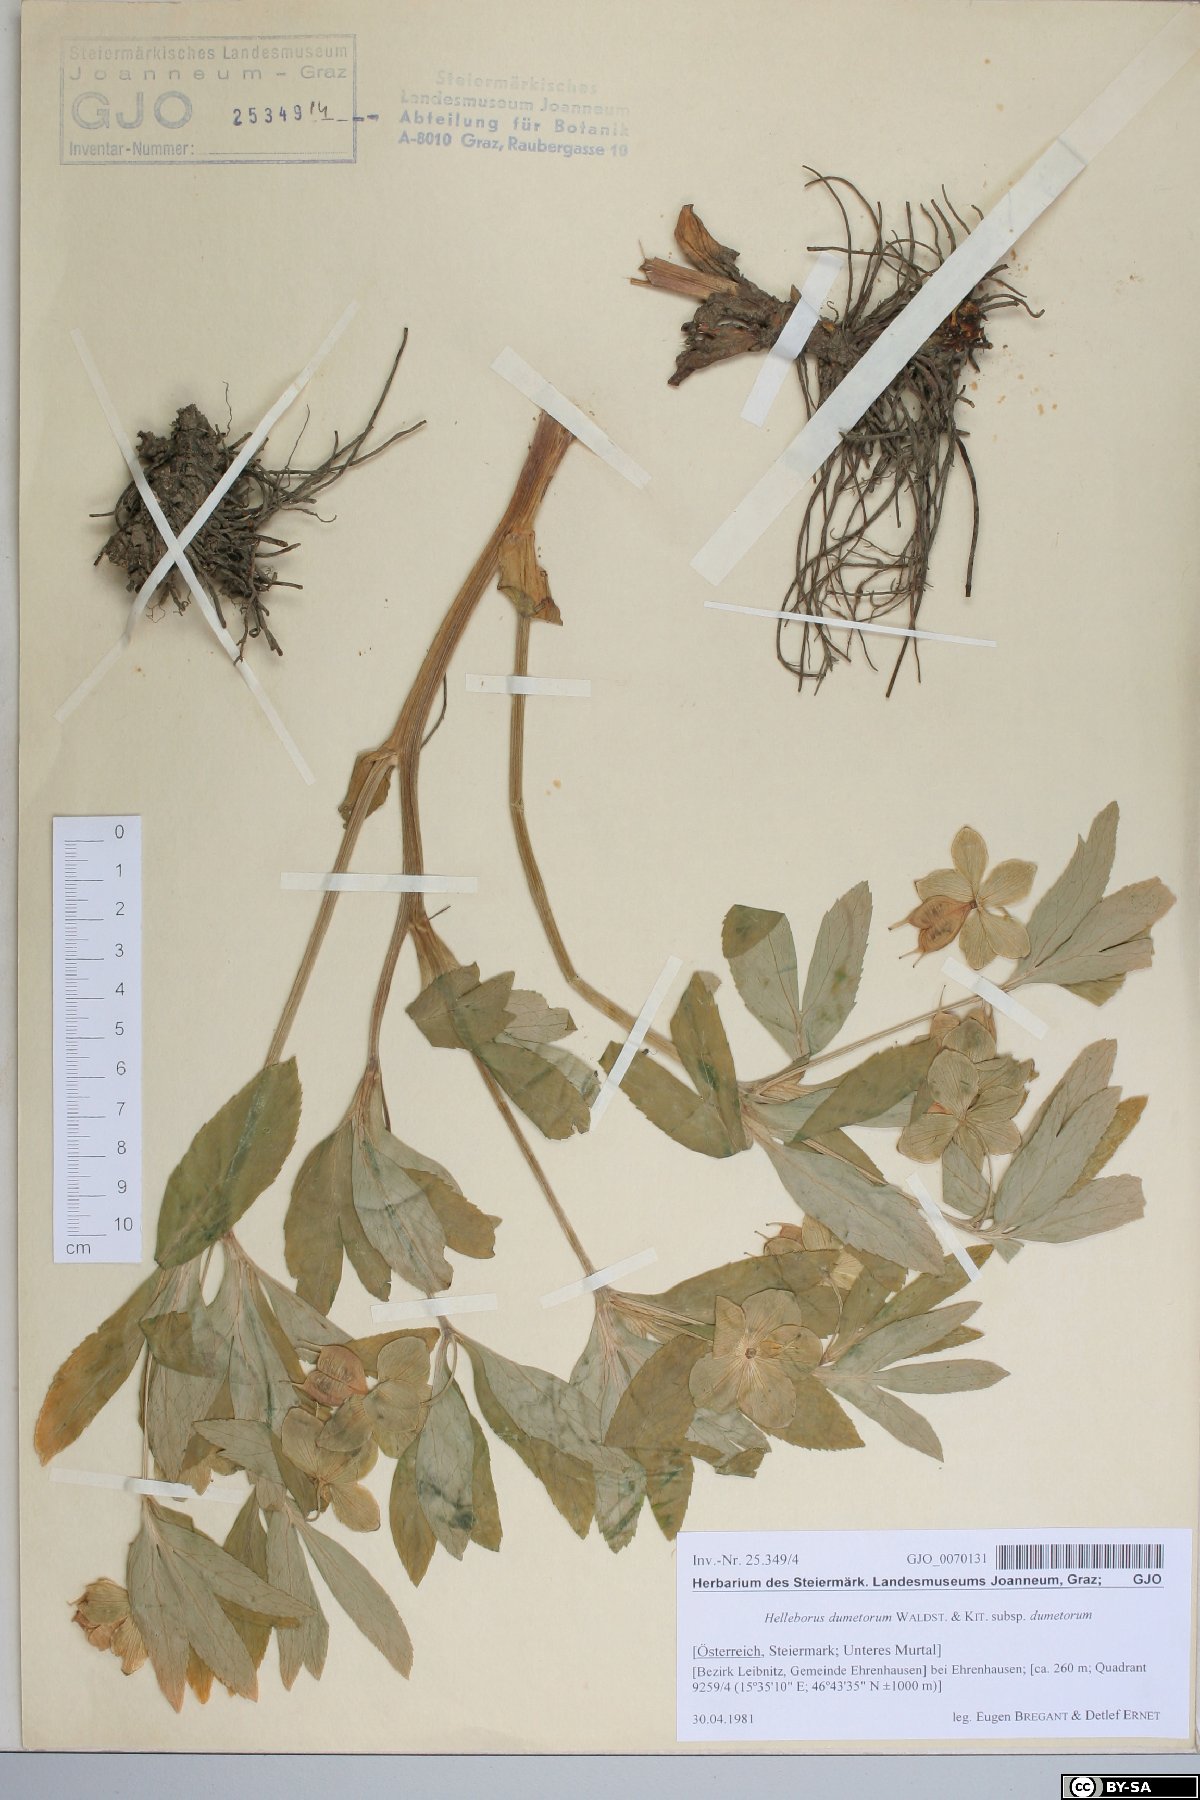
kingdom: Plantae
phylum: Tracheophyta
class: Magnoliopsida
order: Ranunculales
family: Ranunculaceae
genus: Helleborus
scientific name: Helleborus dumetorum
